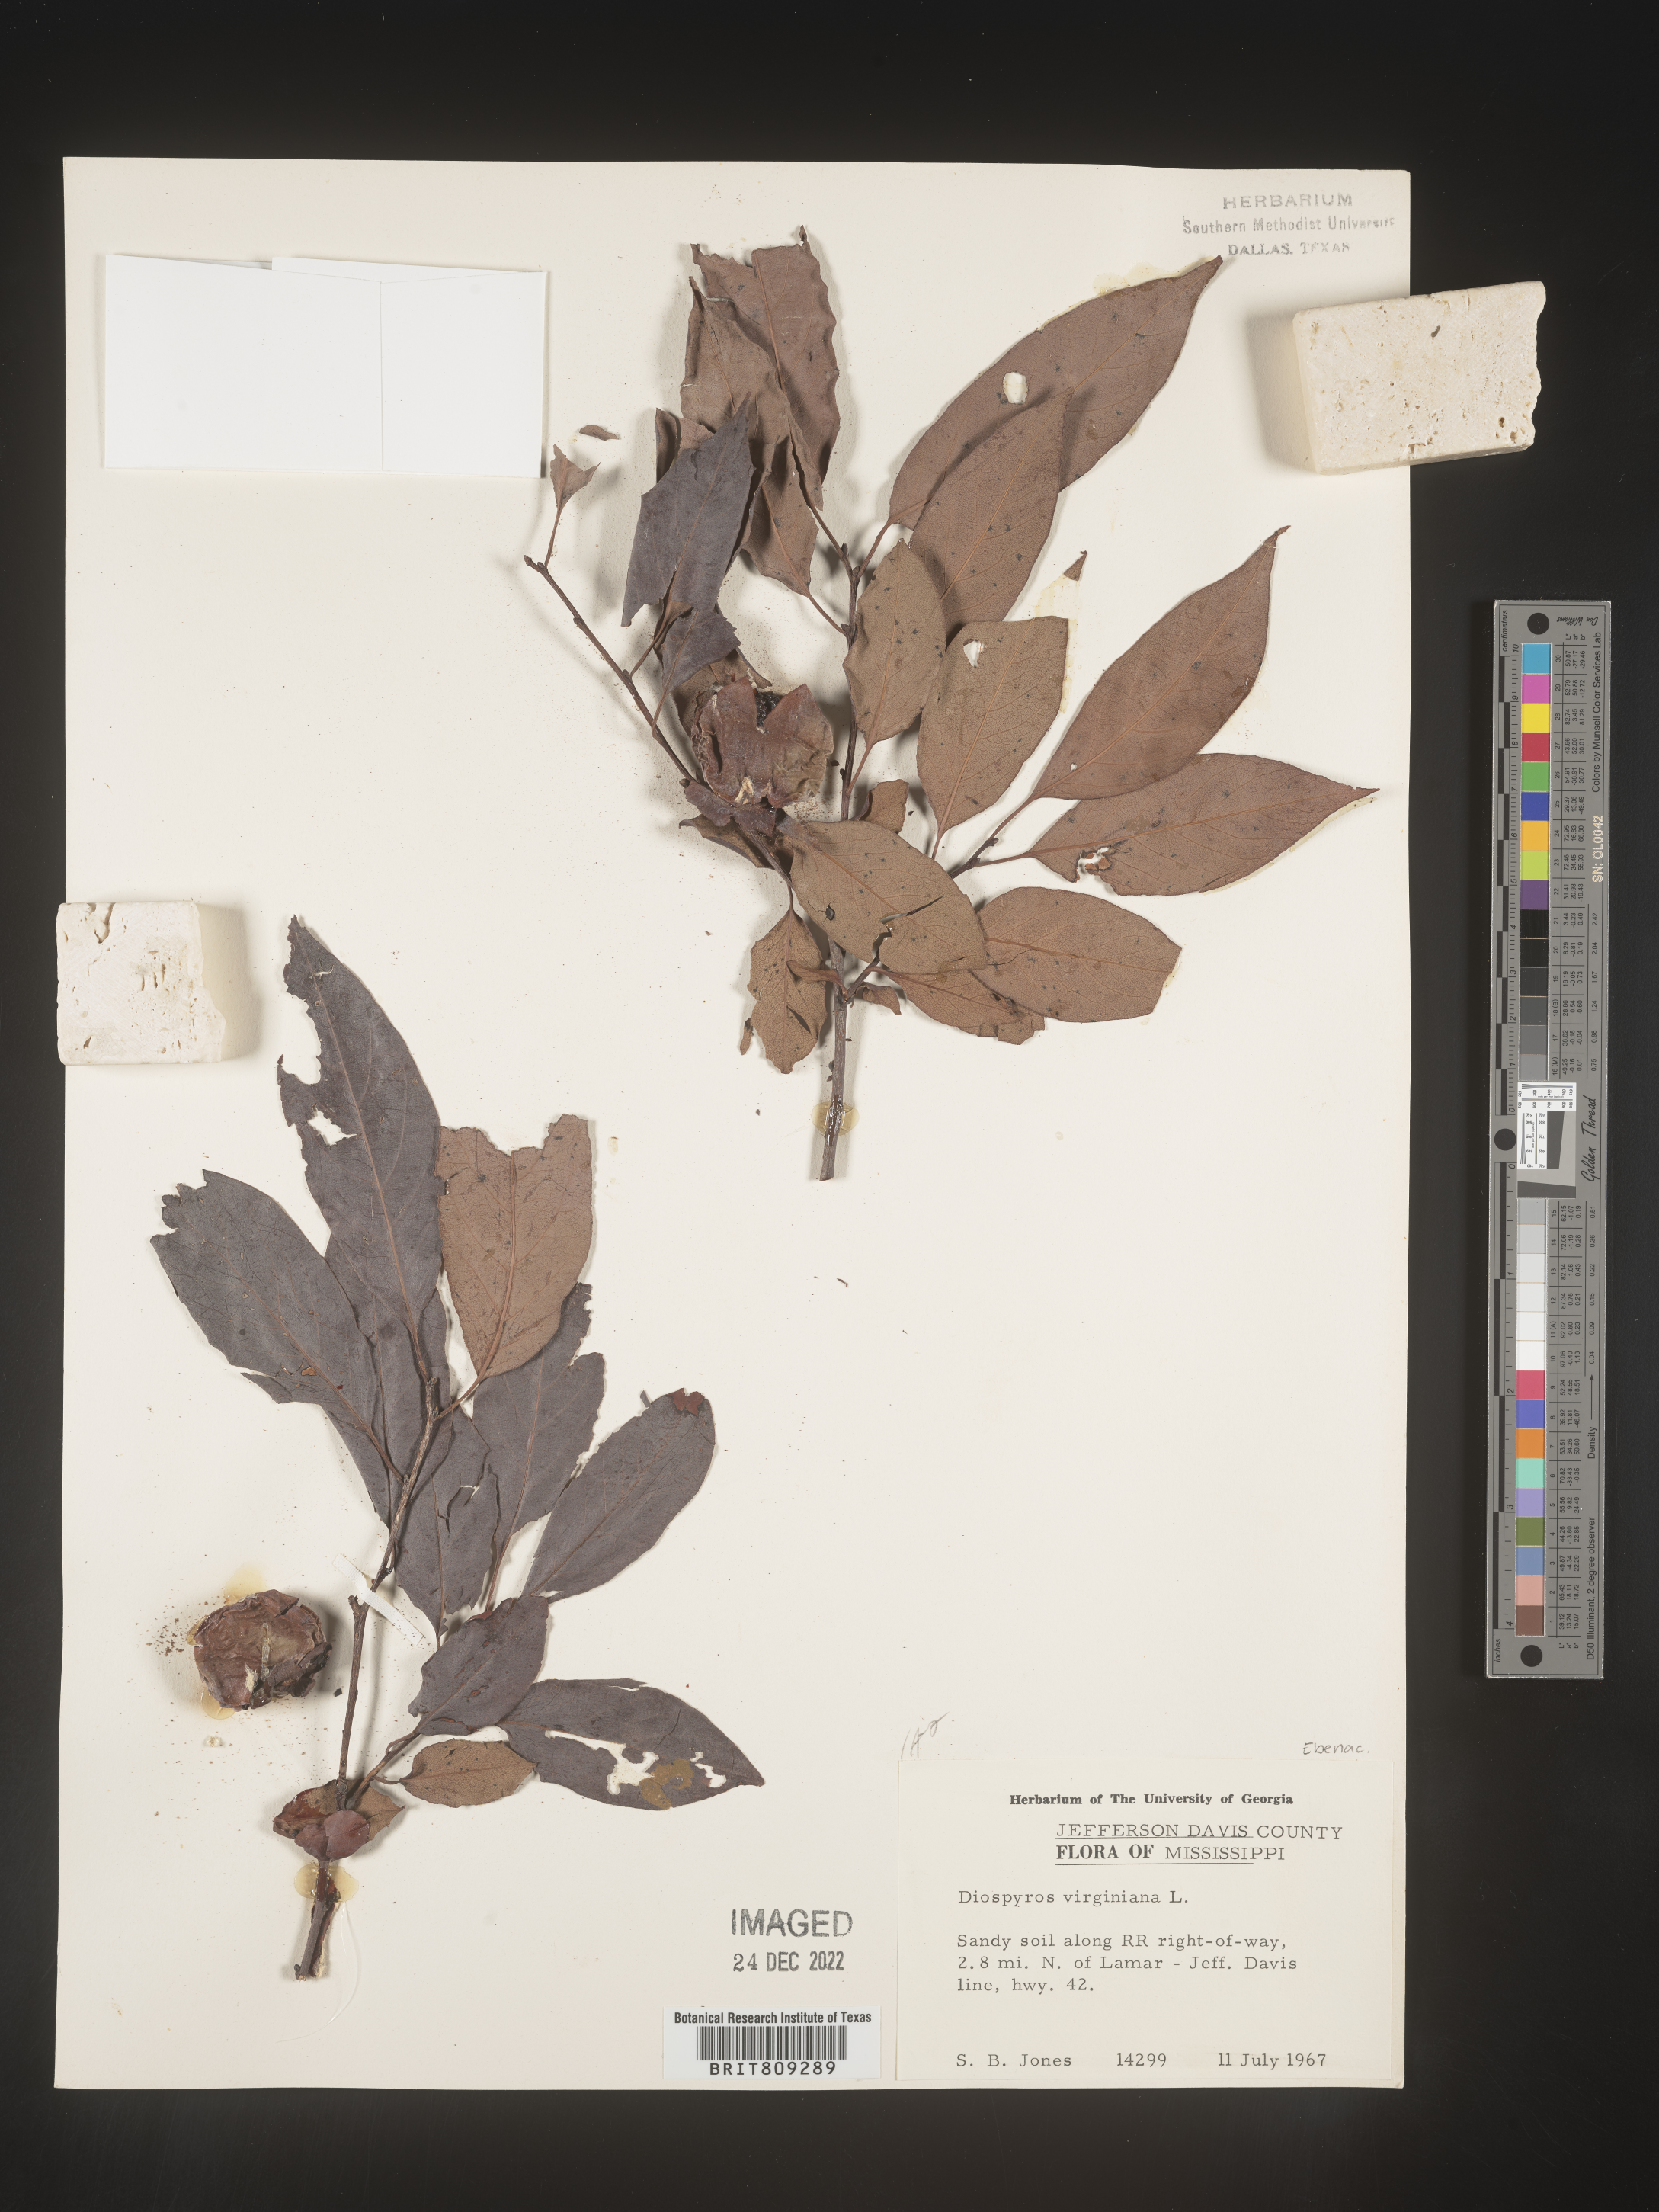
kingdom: Plantae
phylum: Tracheophyta
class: Magnoliopsida
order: Ericales
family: Ebenaceae
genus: Diospyros
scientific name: Diospyros virginiana
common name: Persimmon
